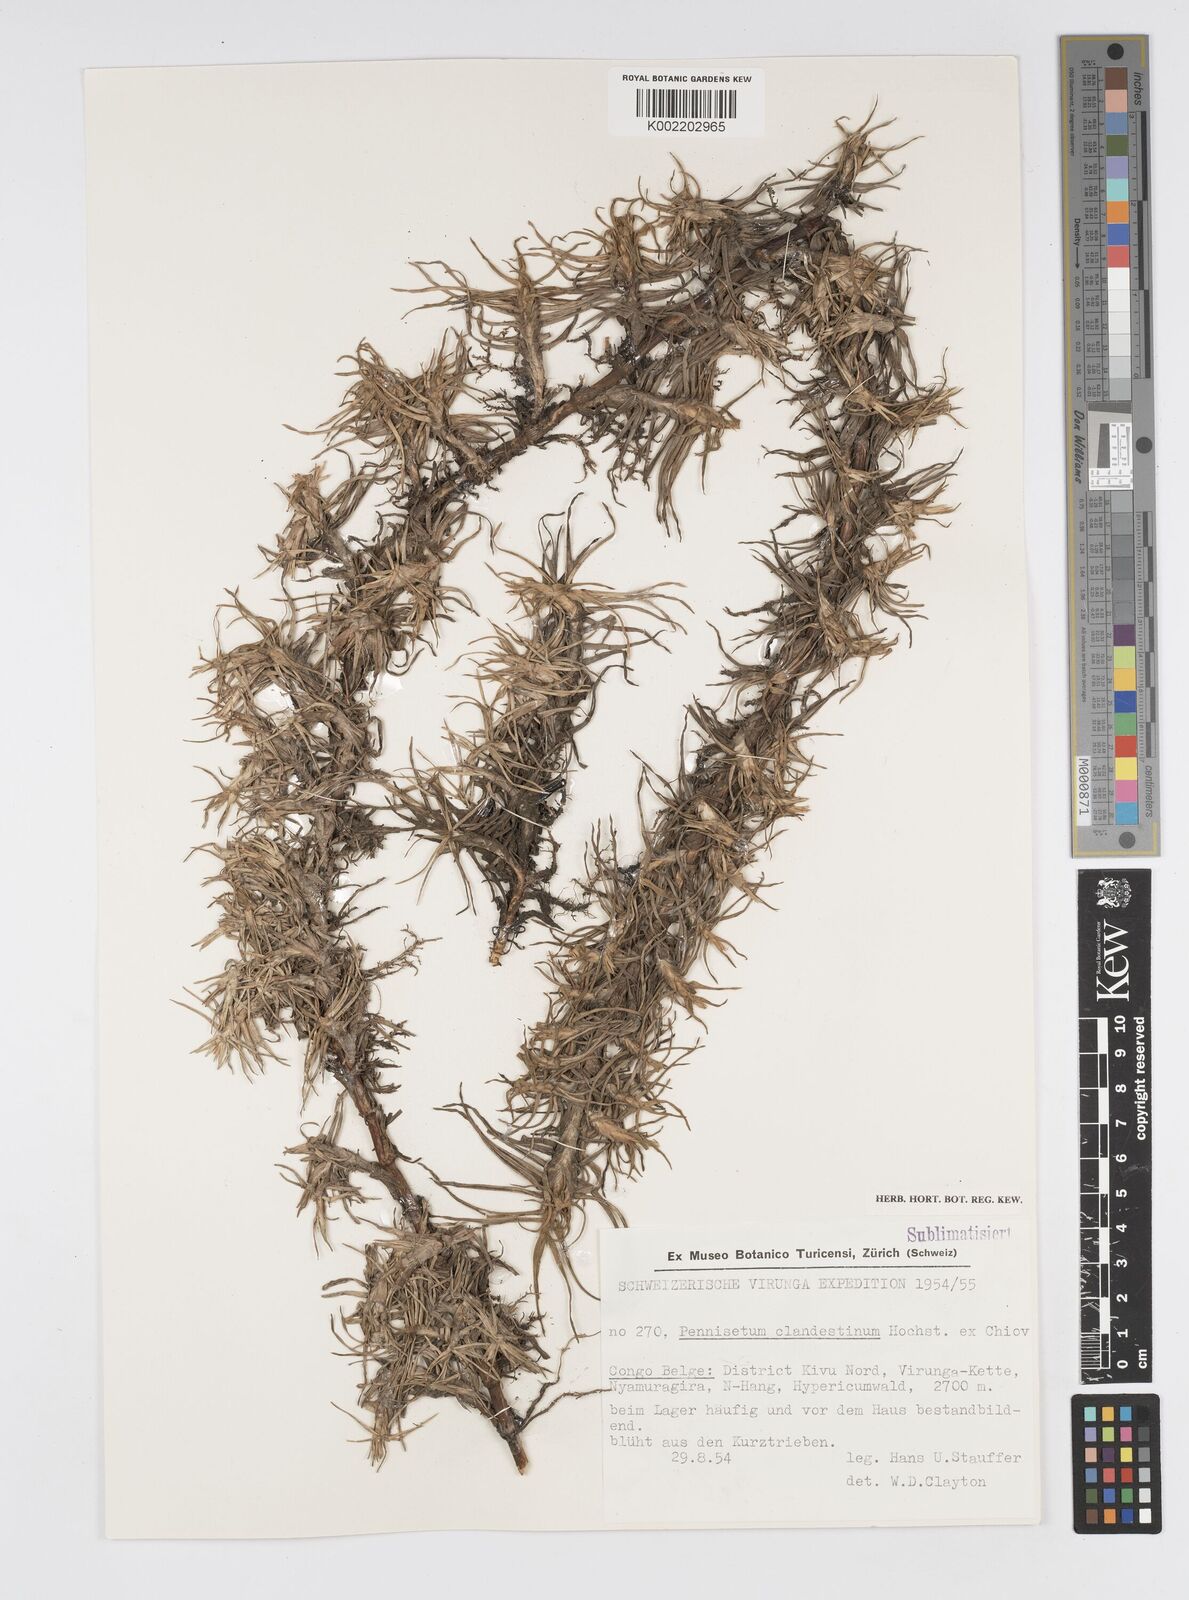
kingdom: Plantae
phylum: Tracheophyta
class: Liliopsida
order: Poales
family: Poaceae
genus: Cenchrus
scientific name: Cenchrus clandestinus
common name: Kikuyugrass
